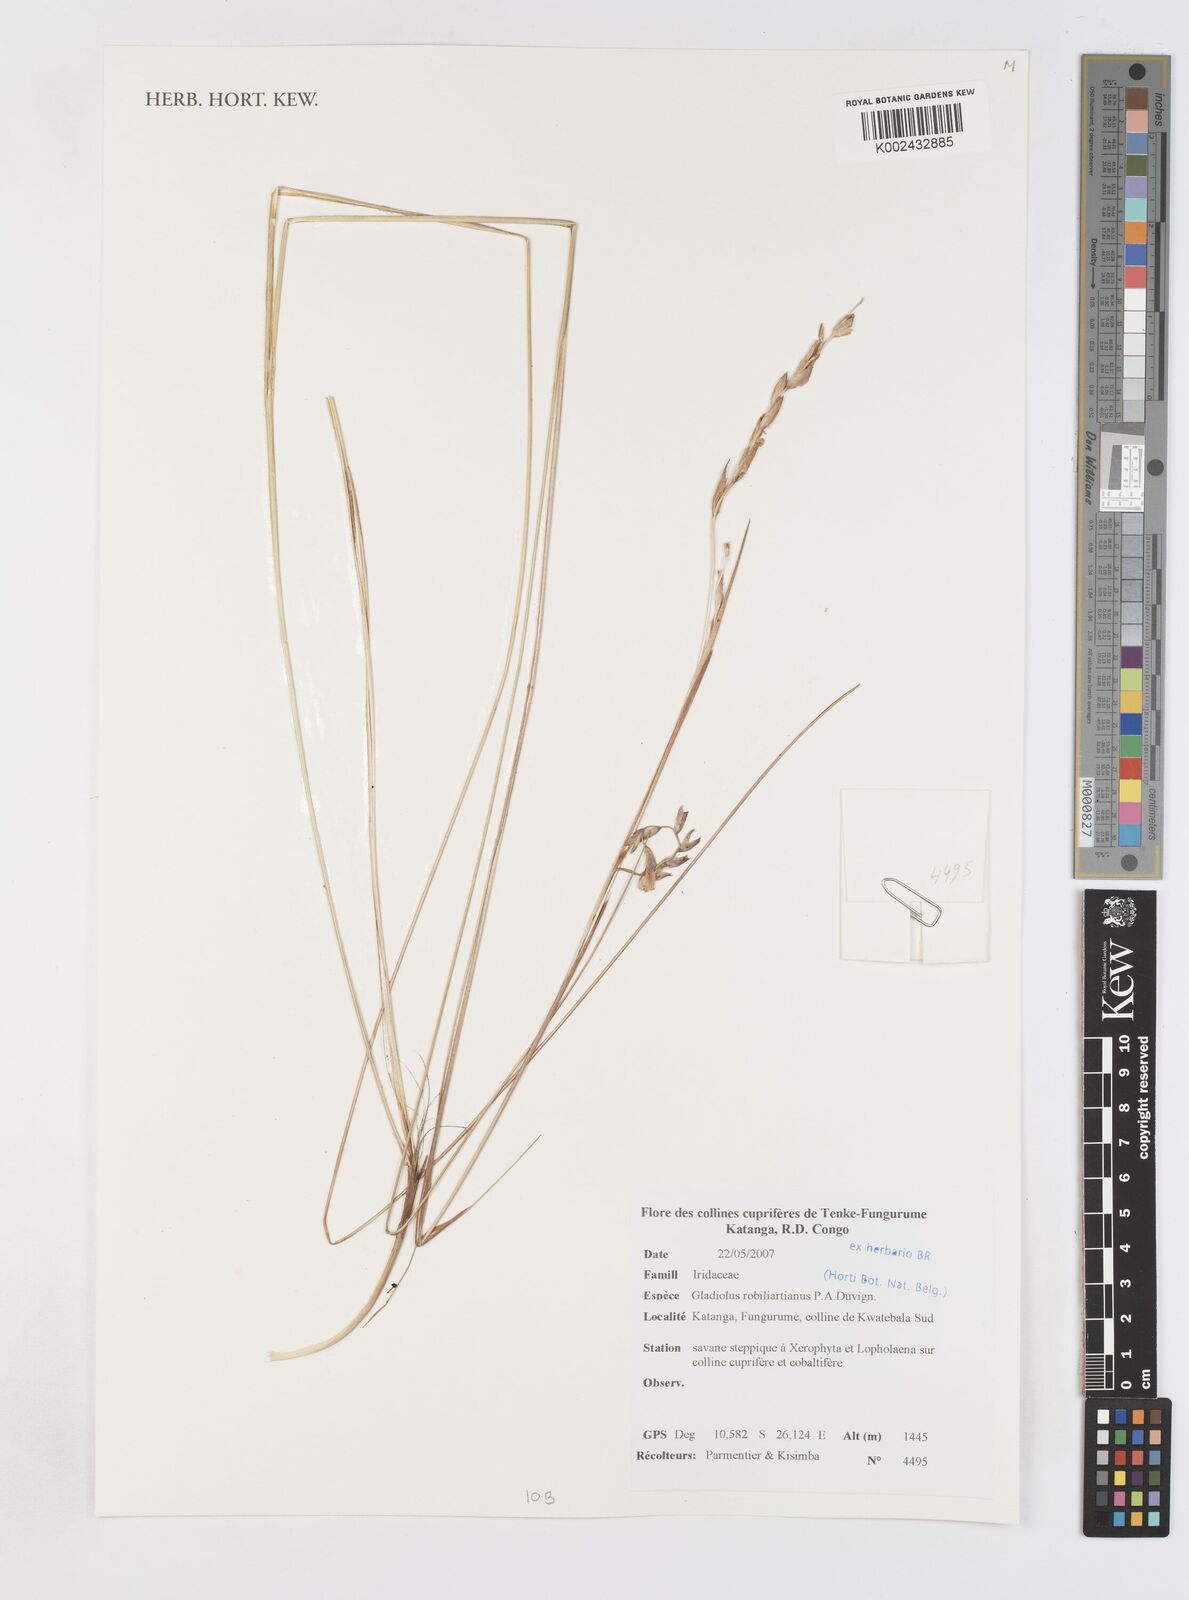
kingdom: Plantae
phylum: Tracheophyta
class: Liliopsida
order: Asparagales
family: Iridaceae
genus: Gladiolus
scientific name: Gladiolus robiliartianus
